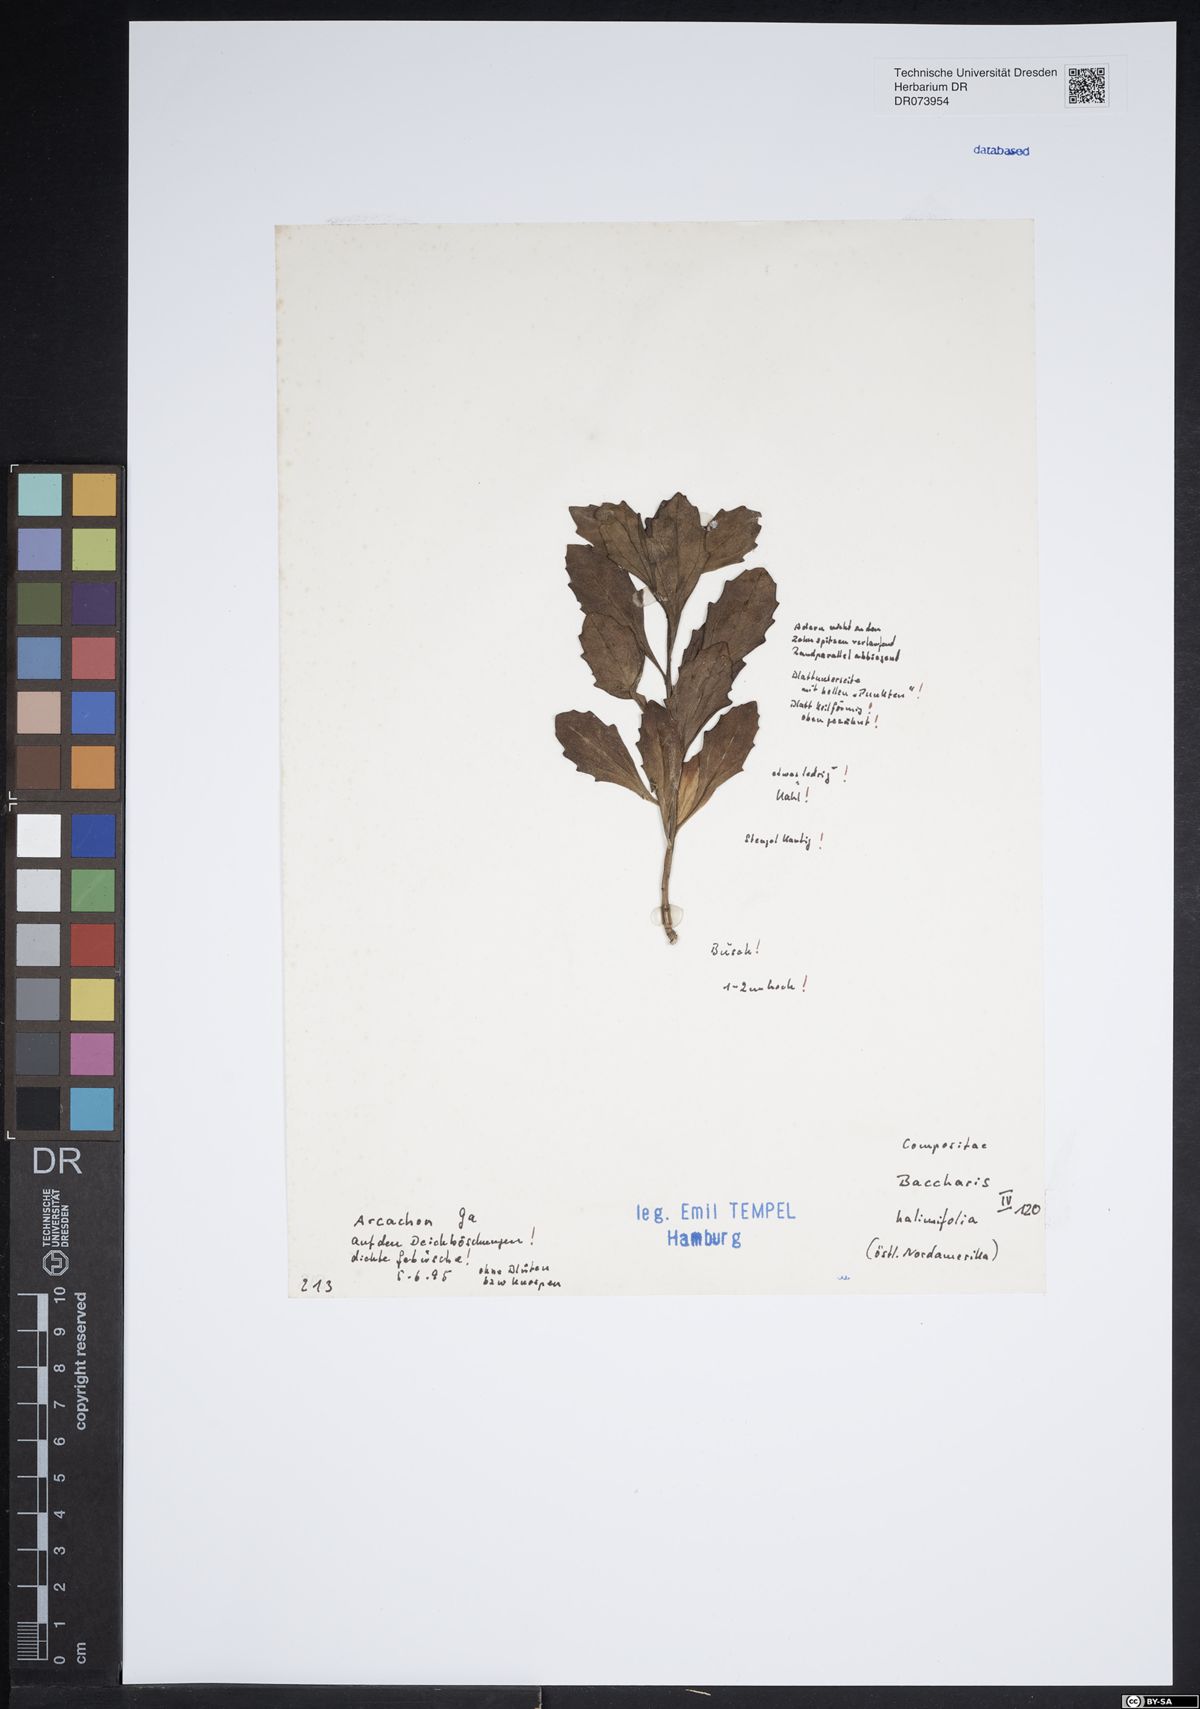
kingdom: Plantae
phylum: Tracheophyta
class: Magnoliopsida
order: Asterales
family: Asteraceae
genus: Baccharis
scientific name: Baccharis halimifolia
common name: Eastern baccharis
